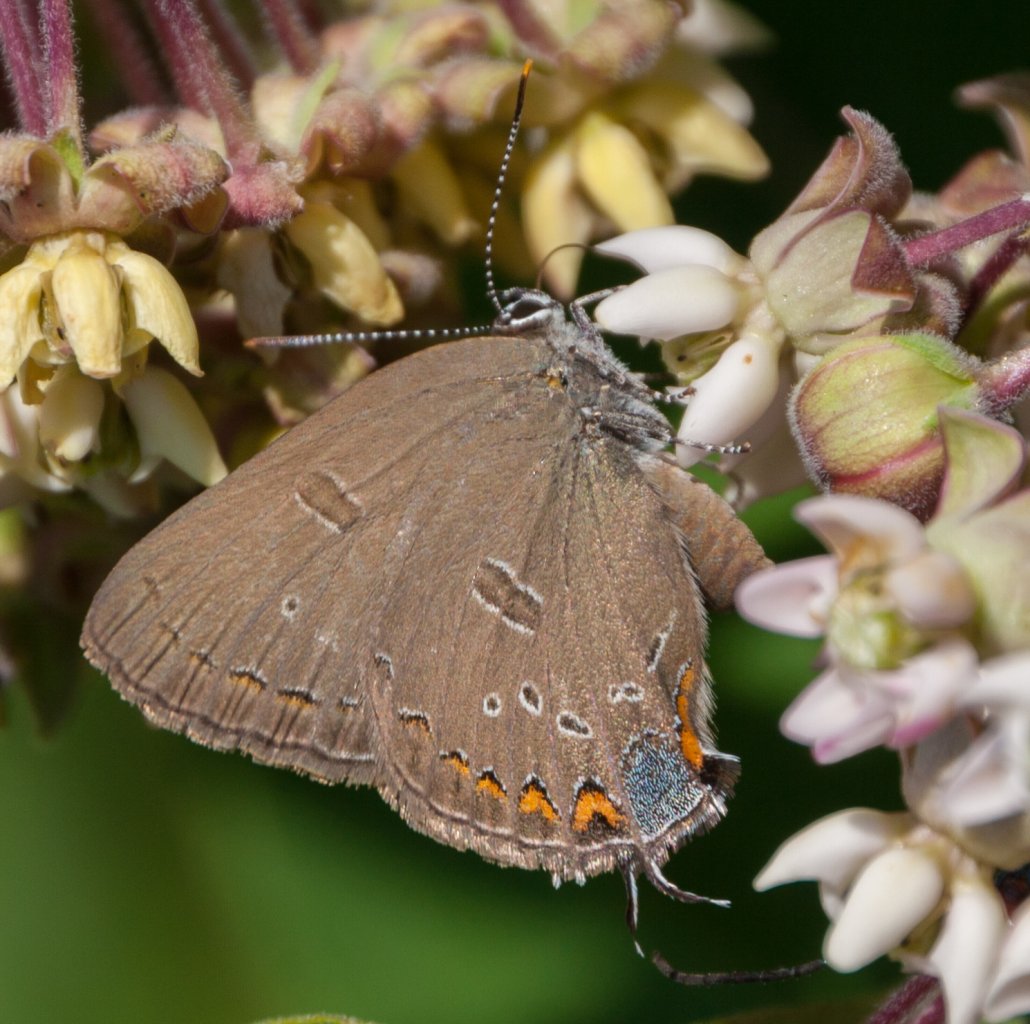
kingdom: Animalia
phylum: Arthropoda
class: Insecta
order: Lepidoptera
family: Lycaenidae
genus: Satyrium
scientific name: Satyrium edwardsii
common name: Edwards' Hairstreak
